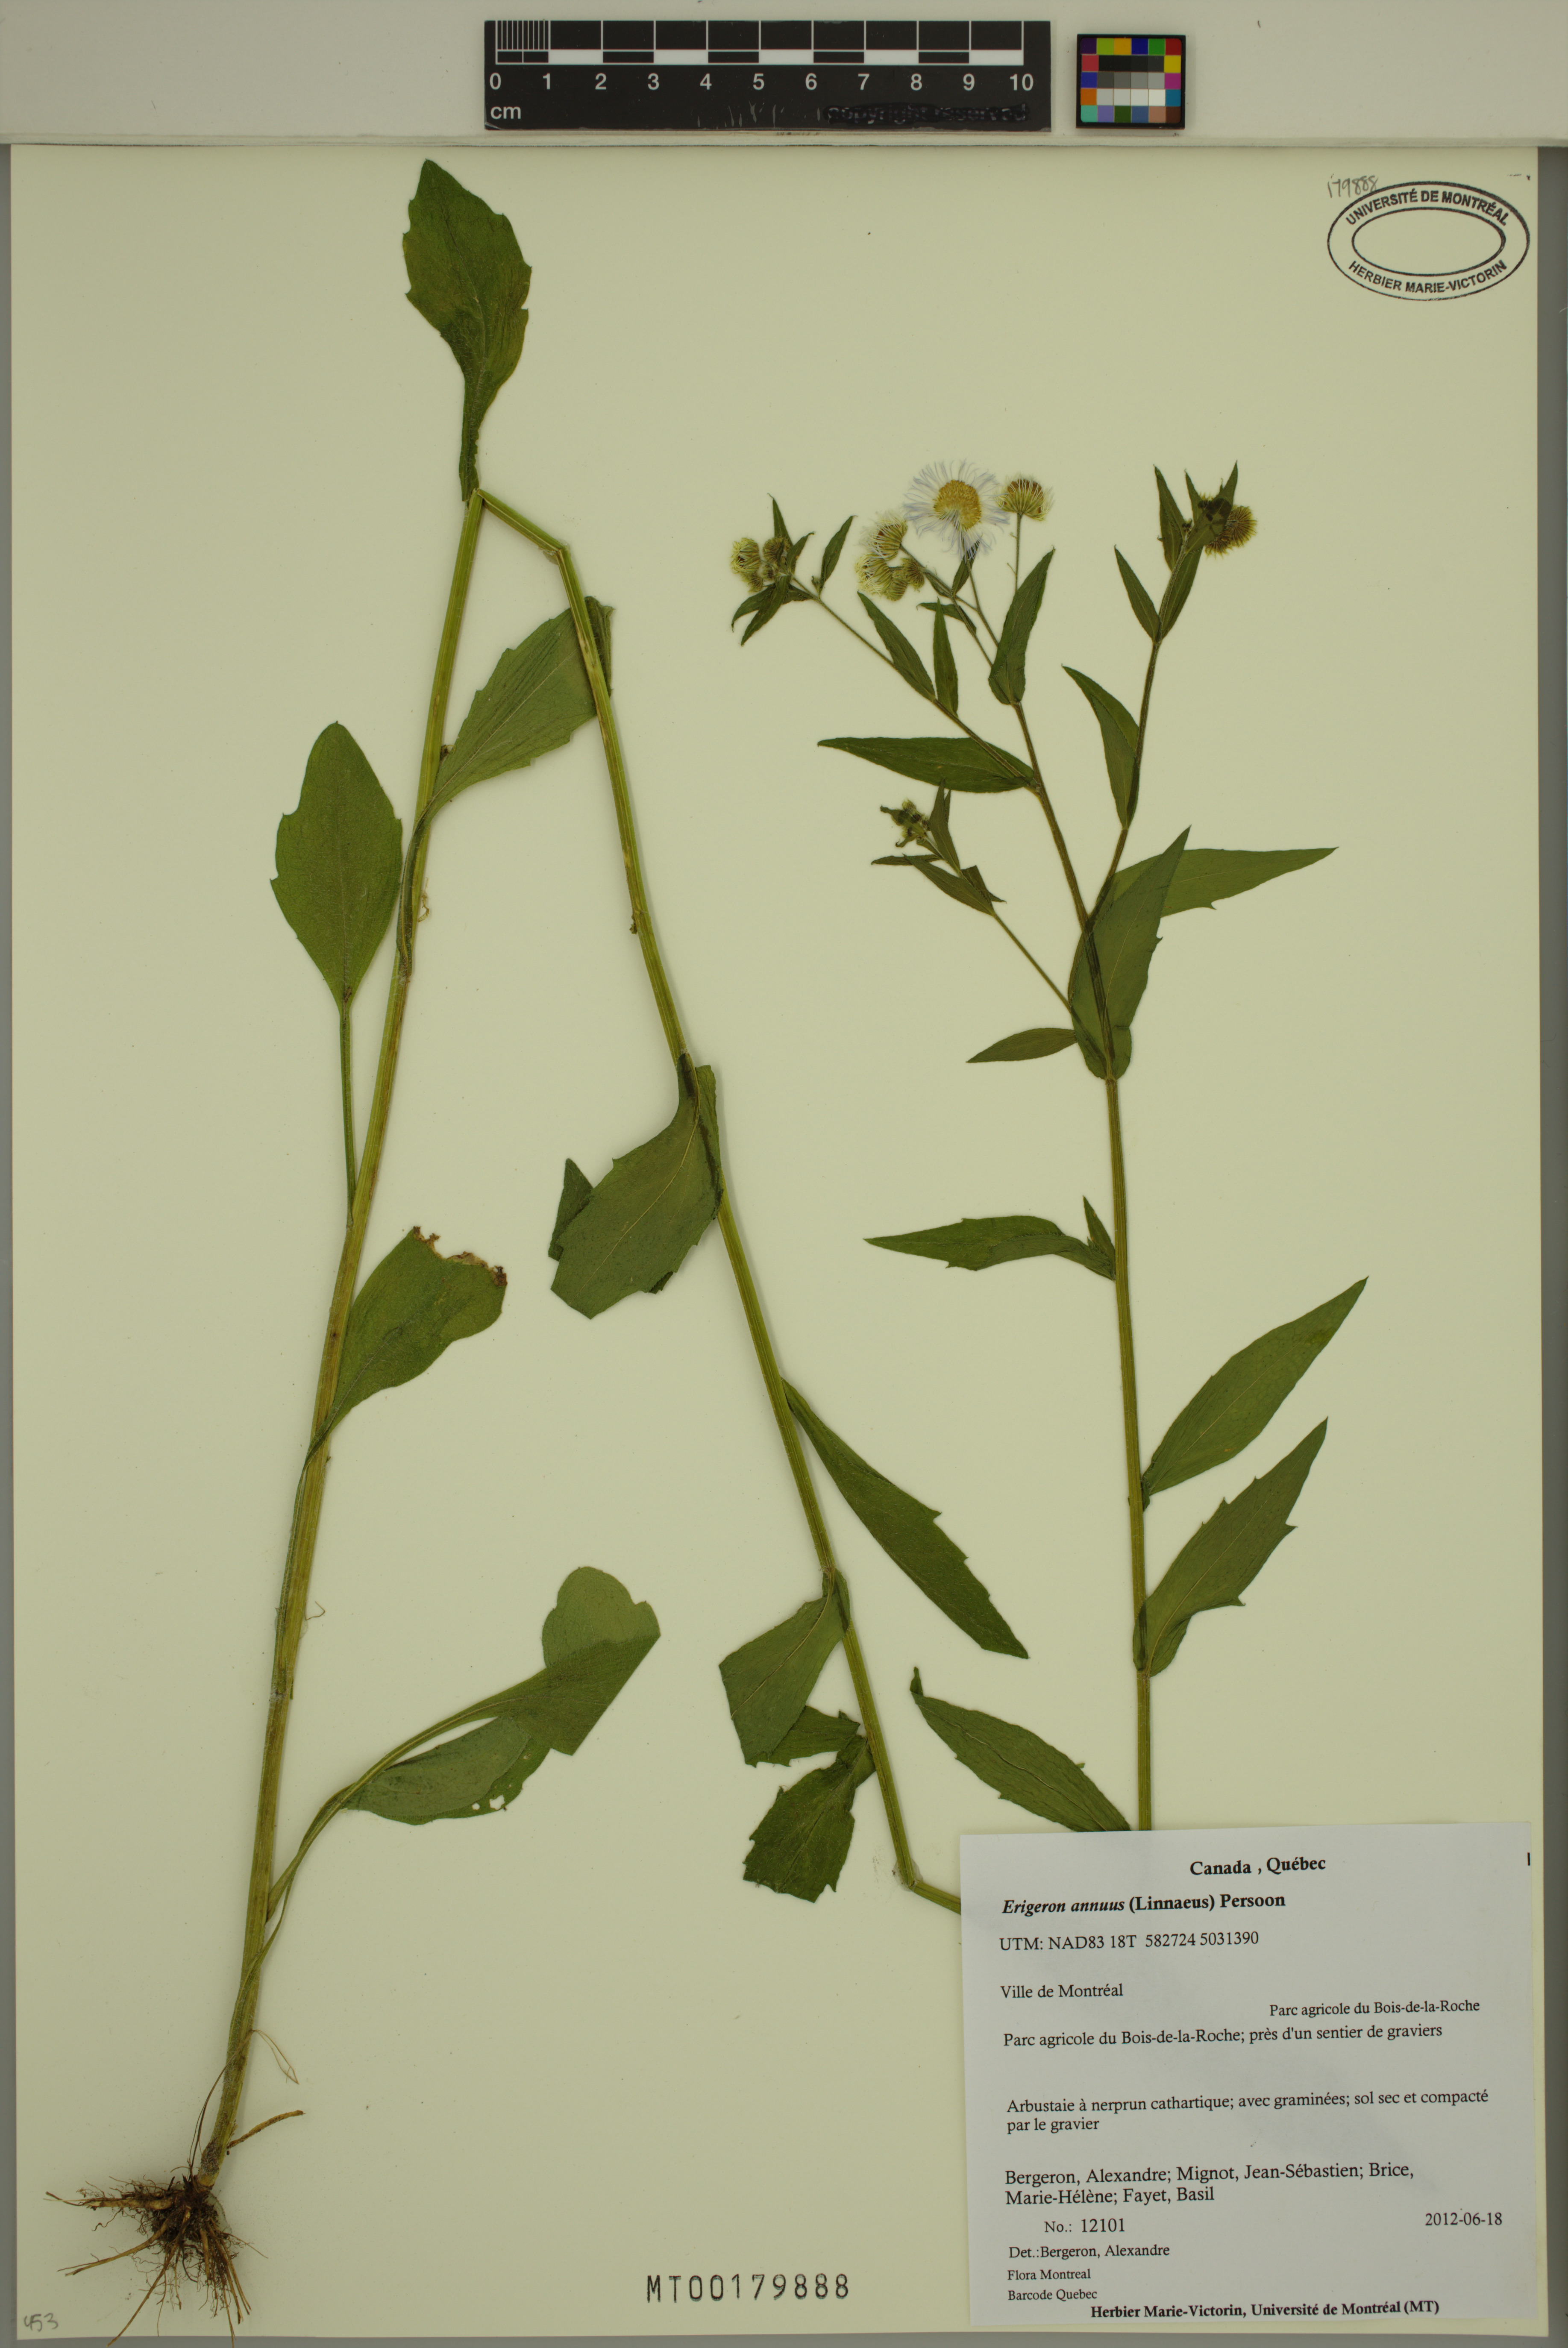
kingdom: Plantae
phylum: Tracheophyta
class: Magnoliopsida
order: Asterales
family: Asteraceae
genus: Erigeron
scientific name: Erigeron annuus
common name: Tall fleabane
